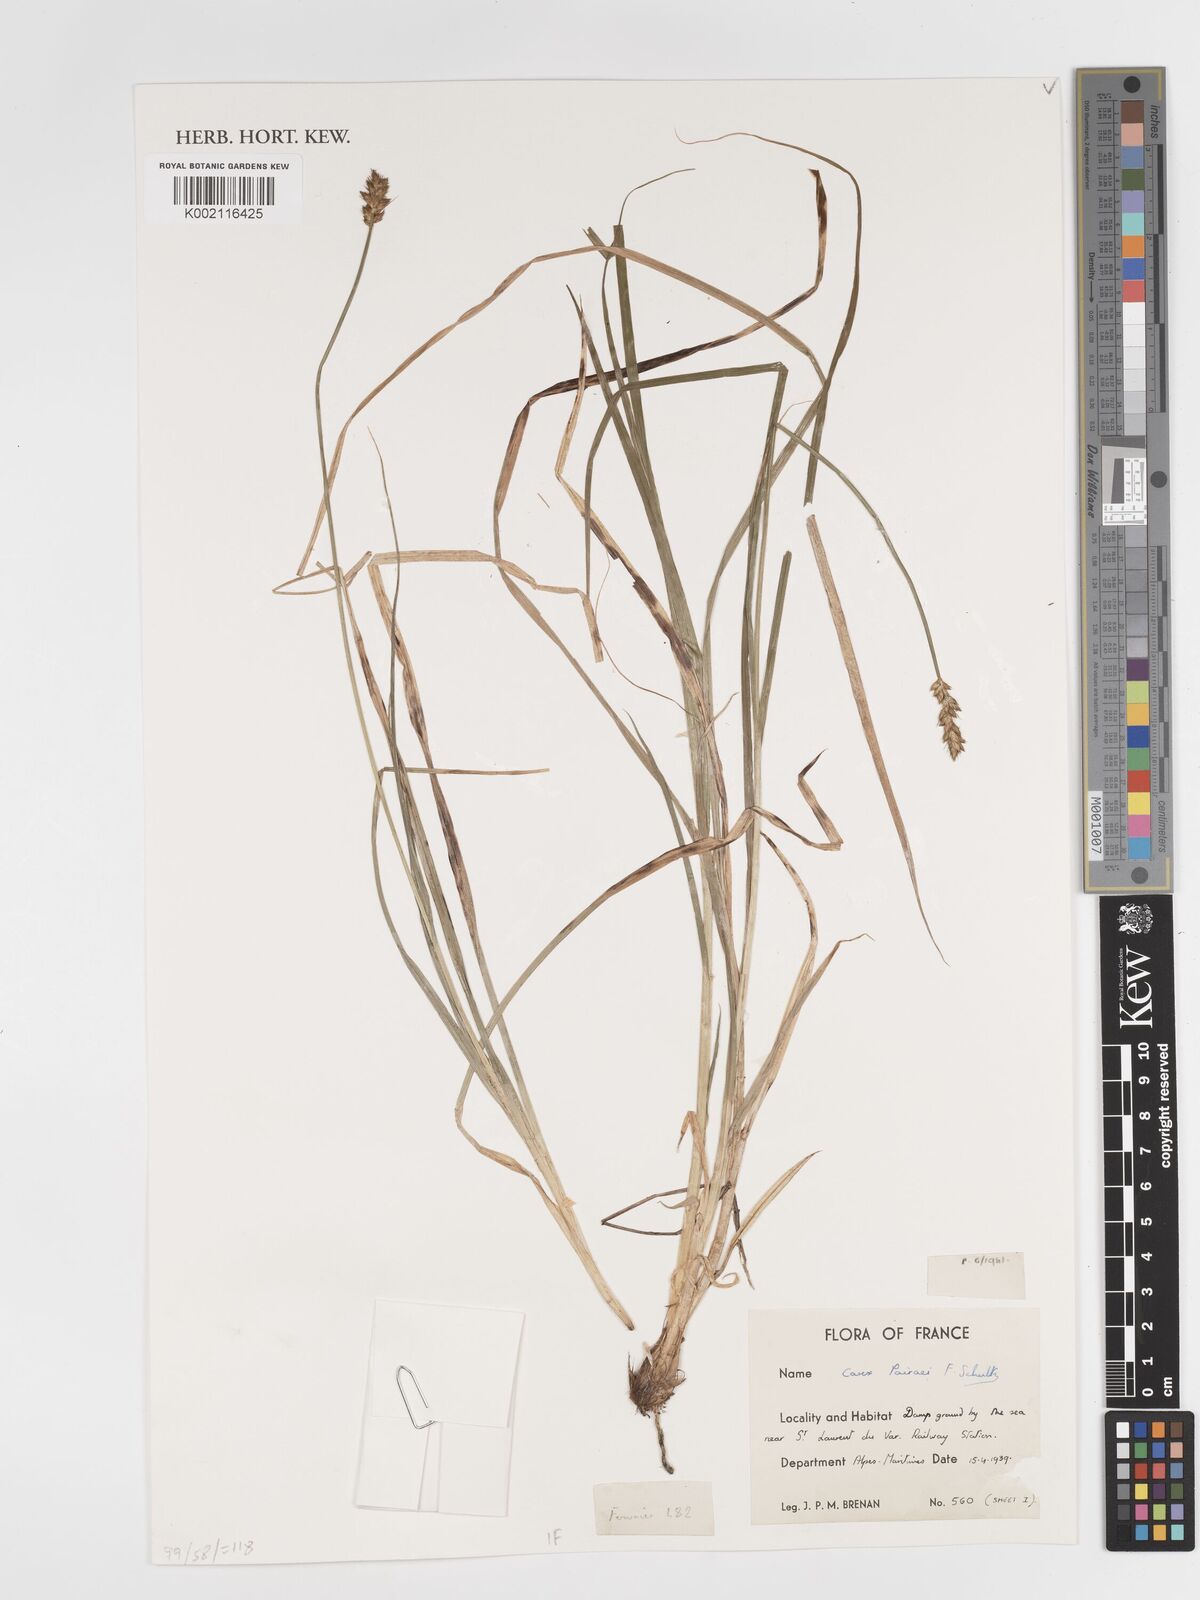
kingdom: Plantae
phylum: Tracheophyta
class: Liliopsida
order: Poales
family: Cyperaceae
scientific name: Cyperaceae
